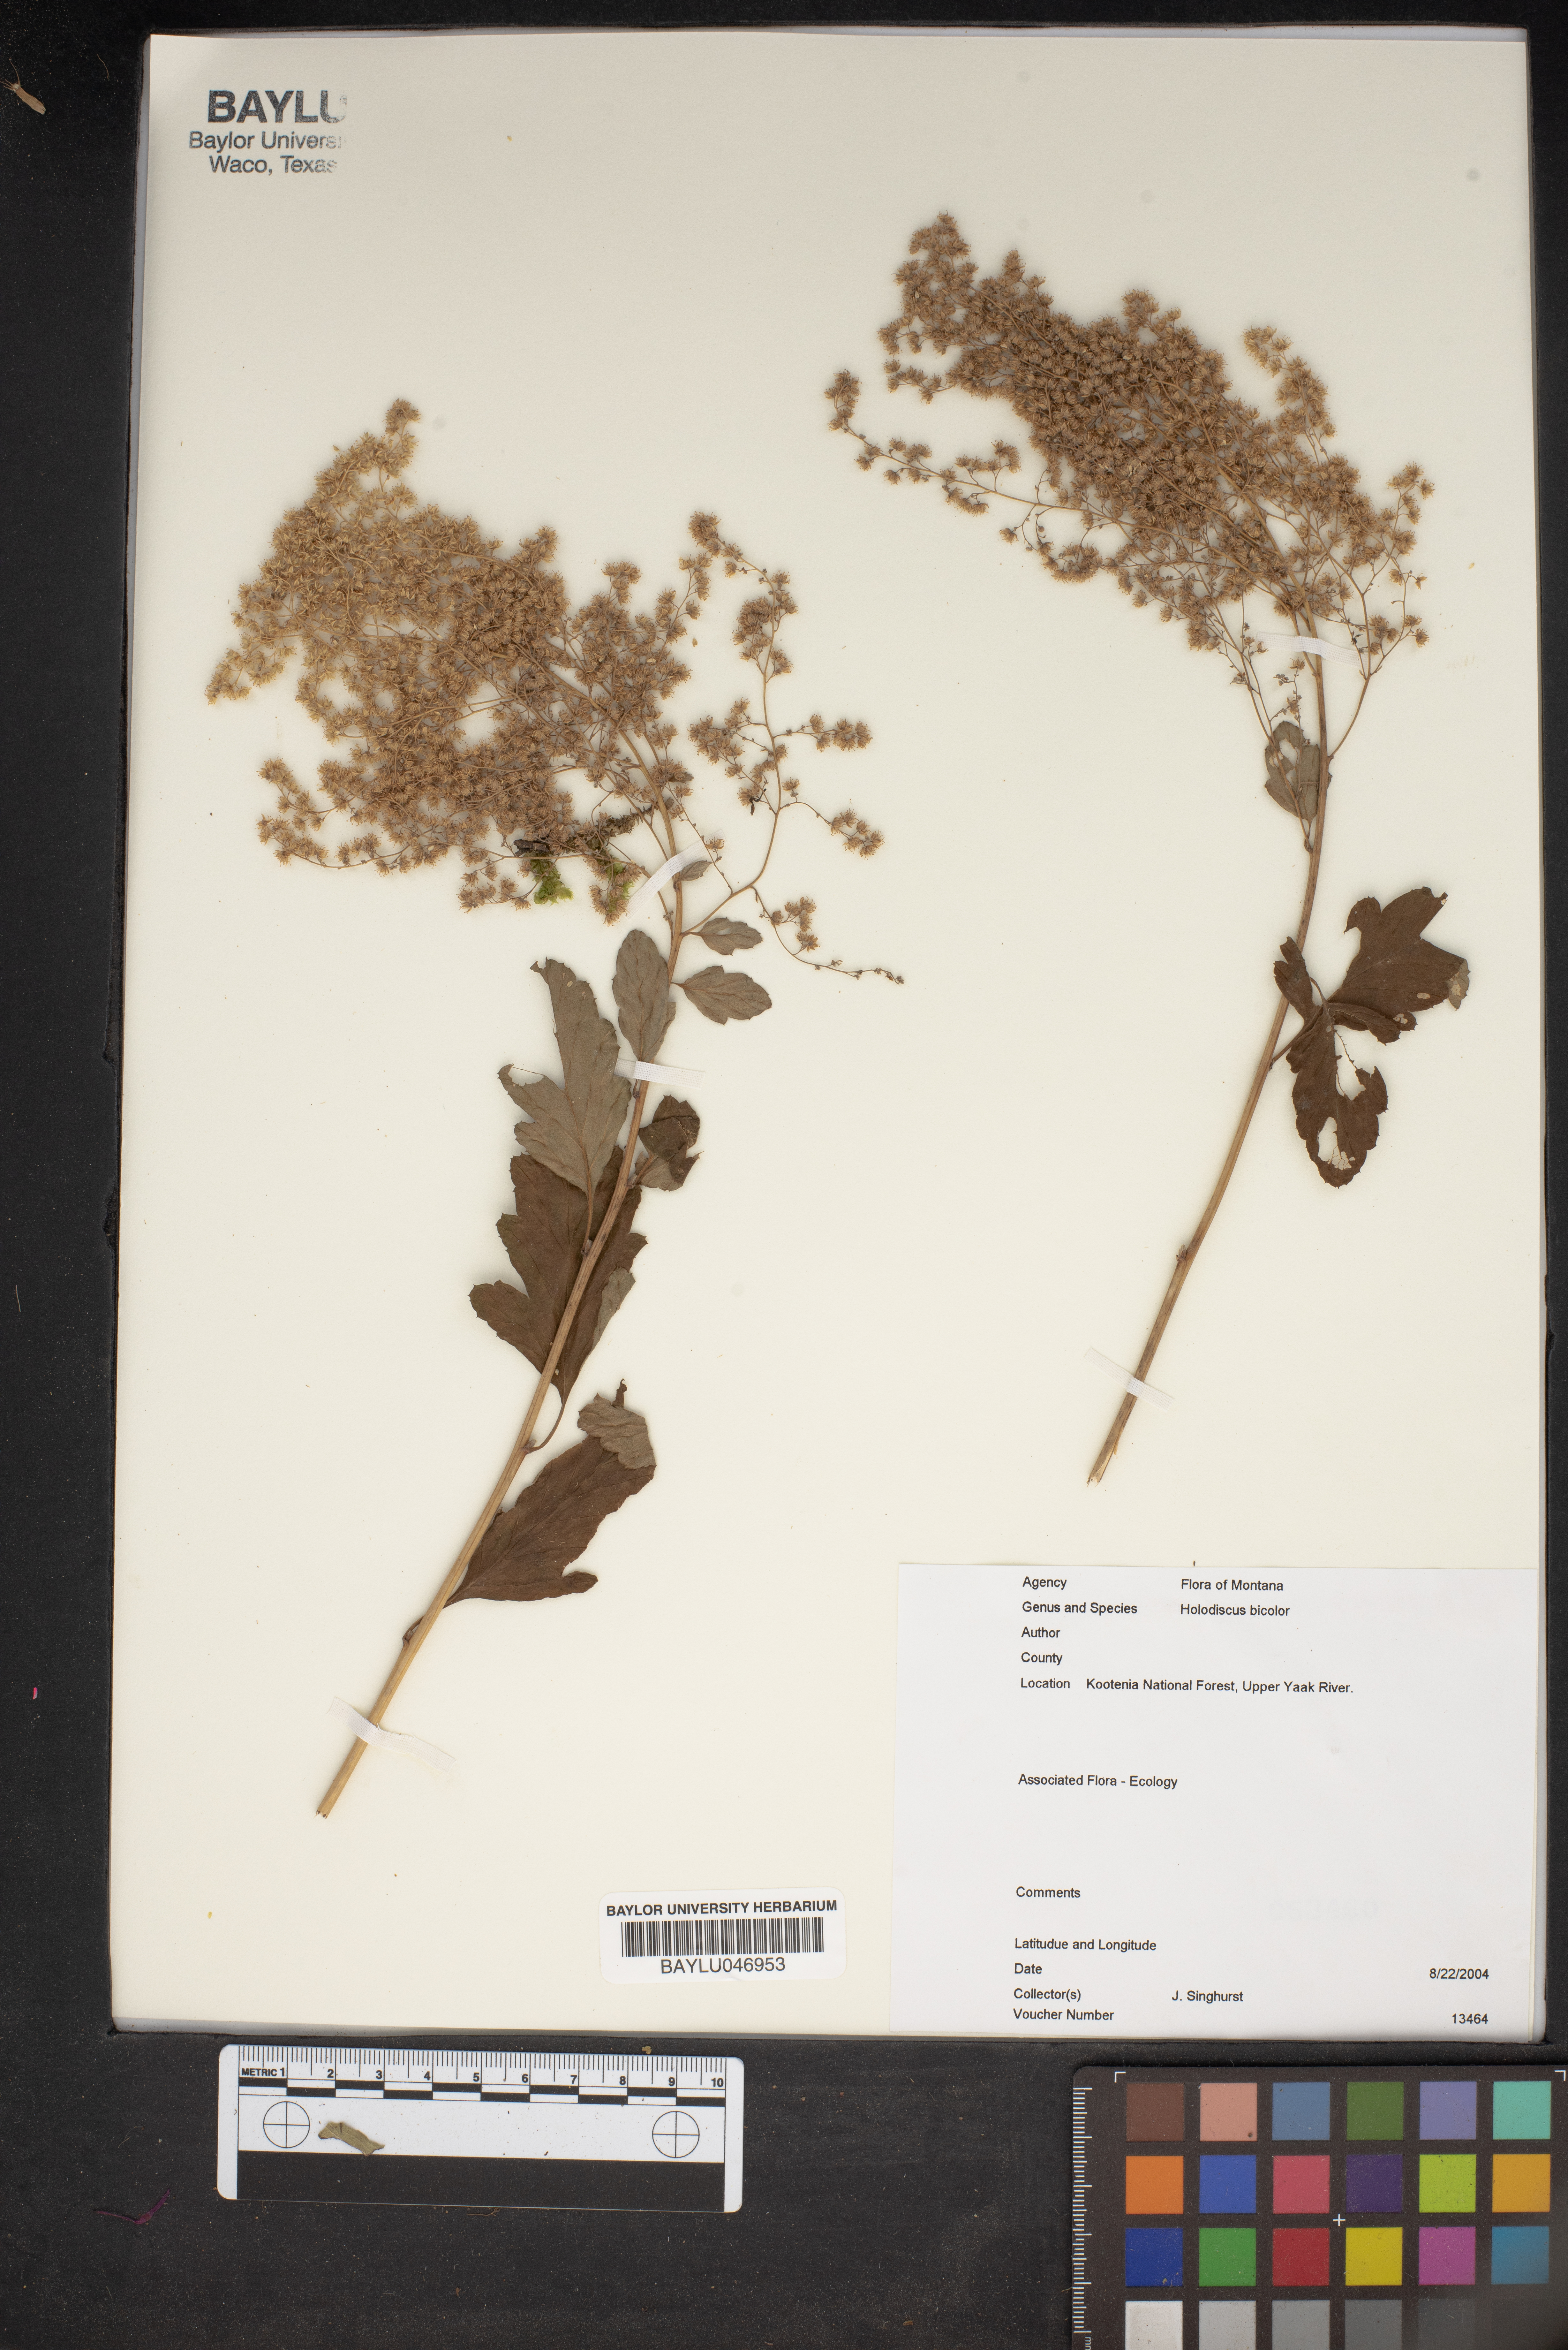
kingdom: Plantae
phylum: Tracheophyta
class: Magnoliopsida
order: Rosales
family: Rosaceae
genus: Holodiscus
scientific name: Holodiscus
